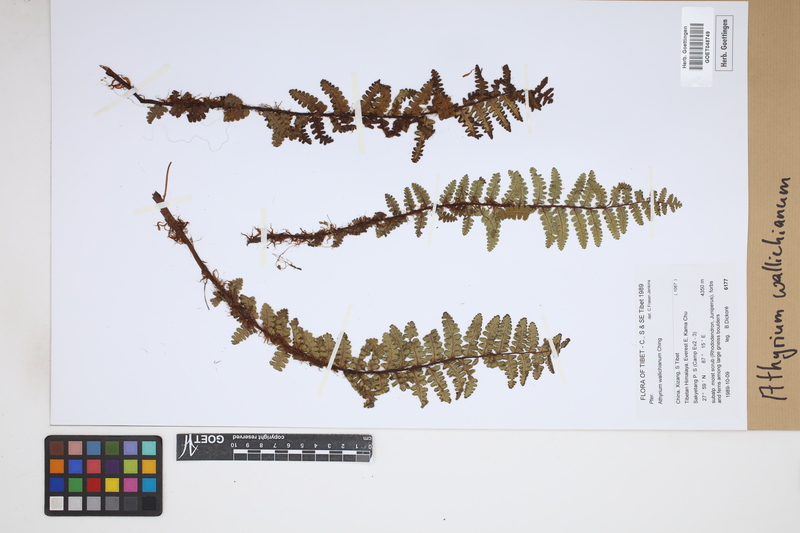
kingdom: Plantae
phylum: Tracheophyta
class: Polypodiopsida
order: Polypodiales
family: Athyriaceae
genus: Athyrium
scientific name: Athyrium wallichianum
